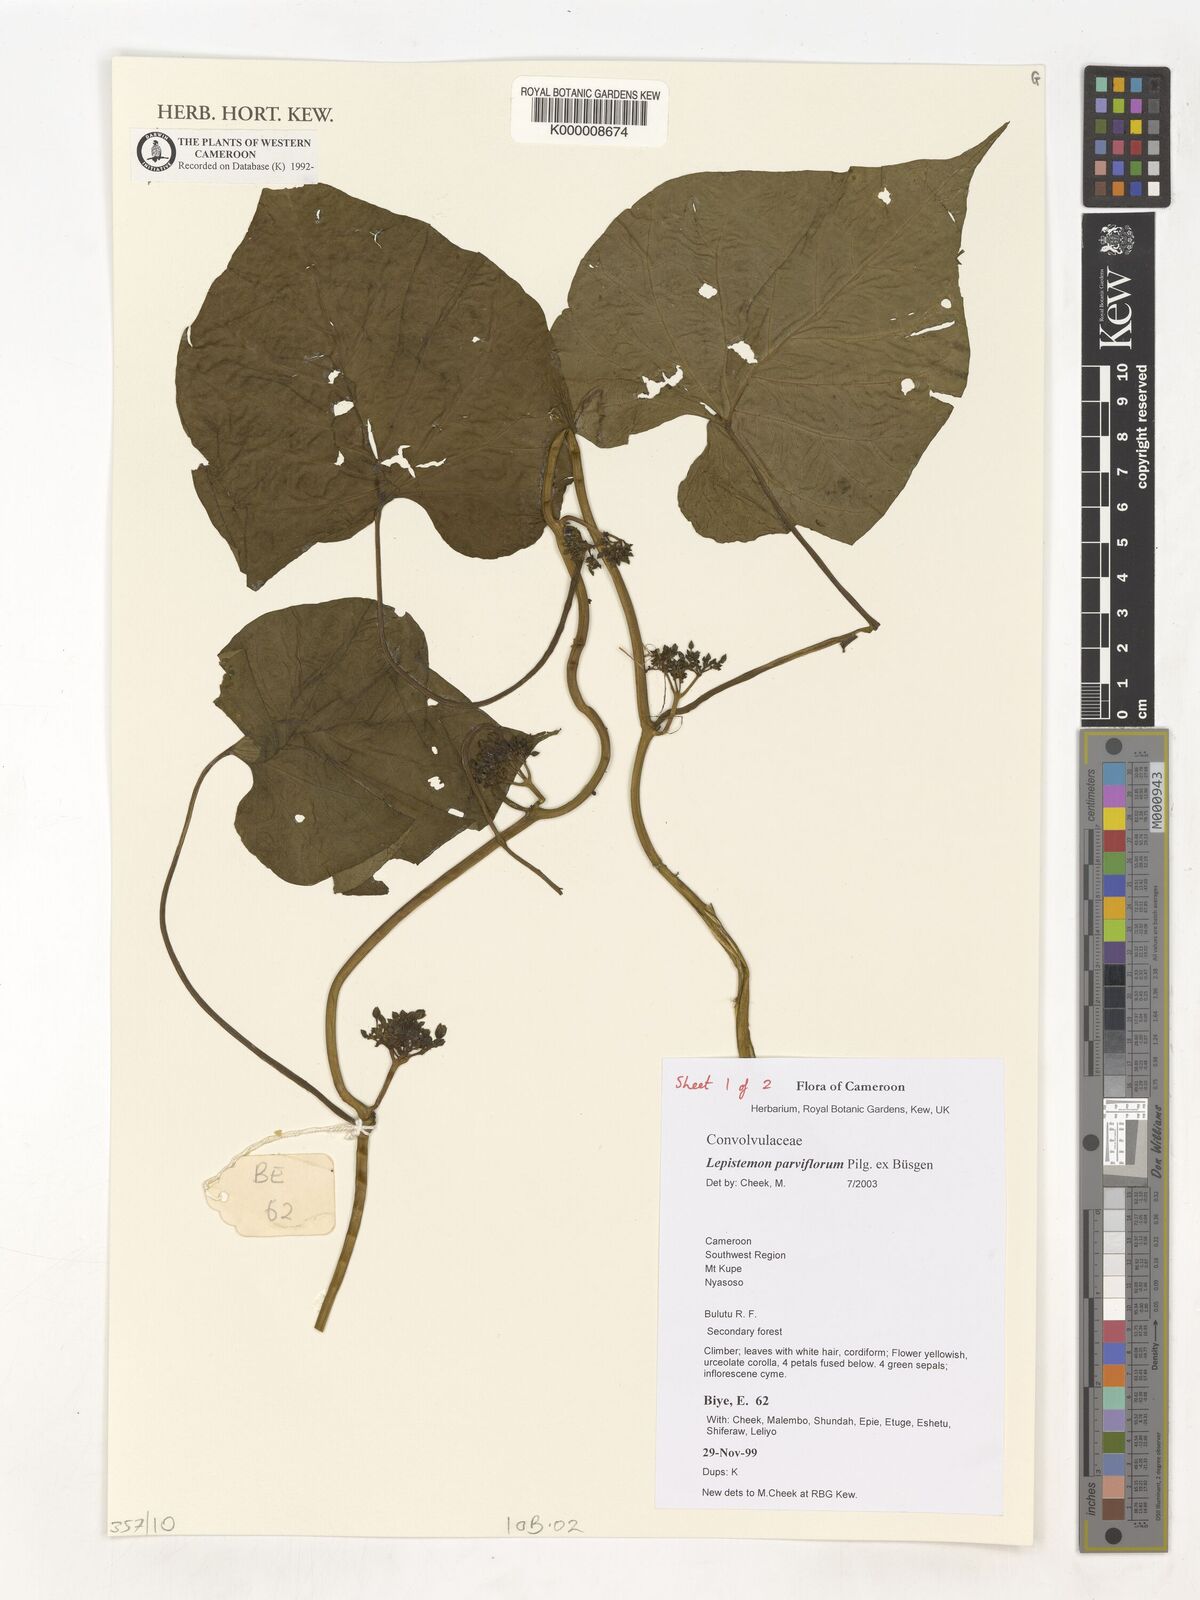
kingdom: Plantae
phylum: Tracheophyta
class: Magnoliopsida
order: Solanales
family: Convolvulaceae
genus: Lepistemon
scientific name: Lepistemon
